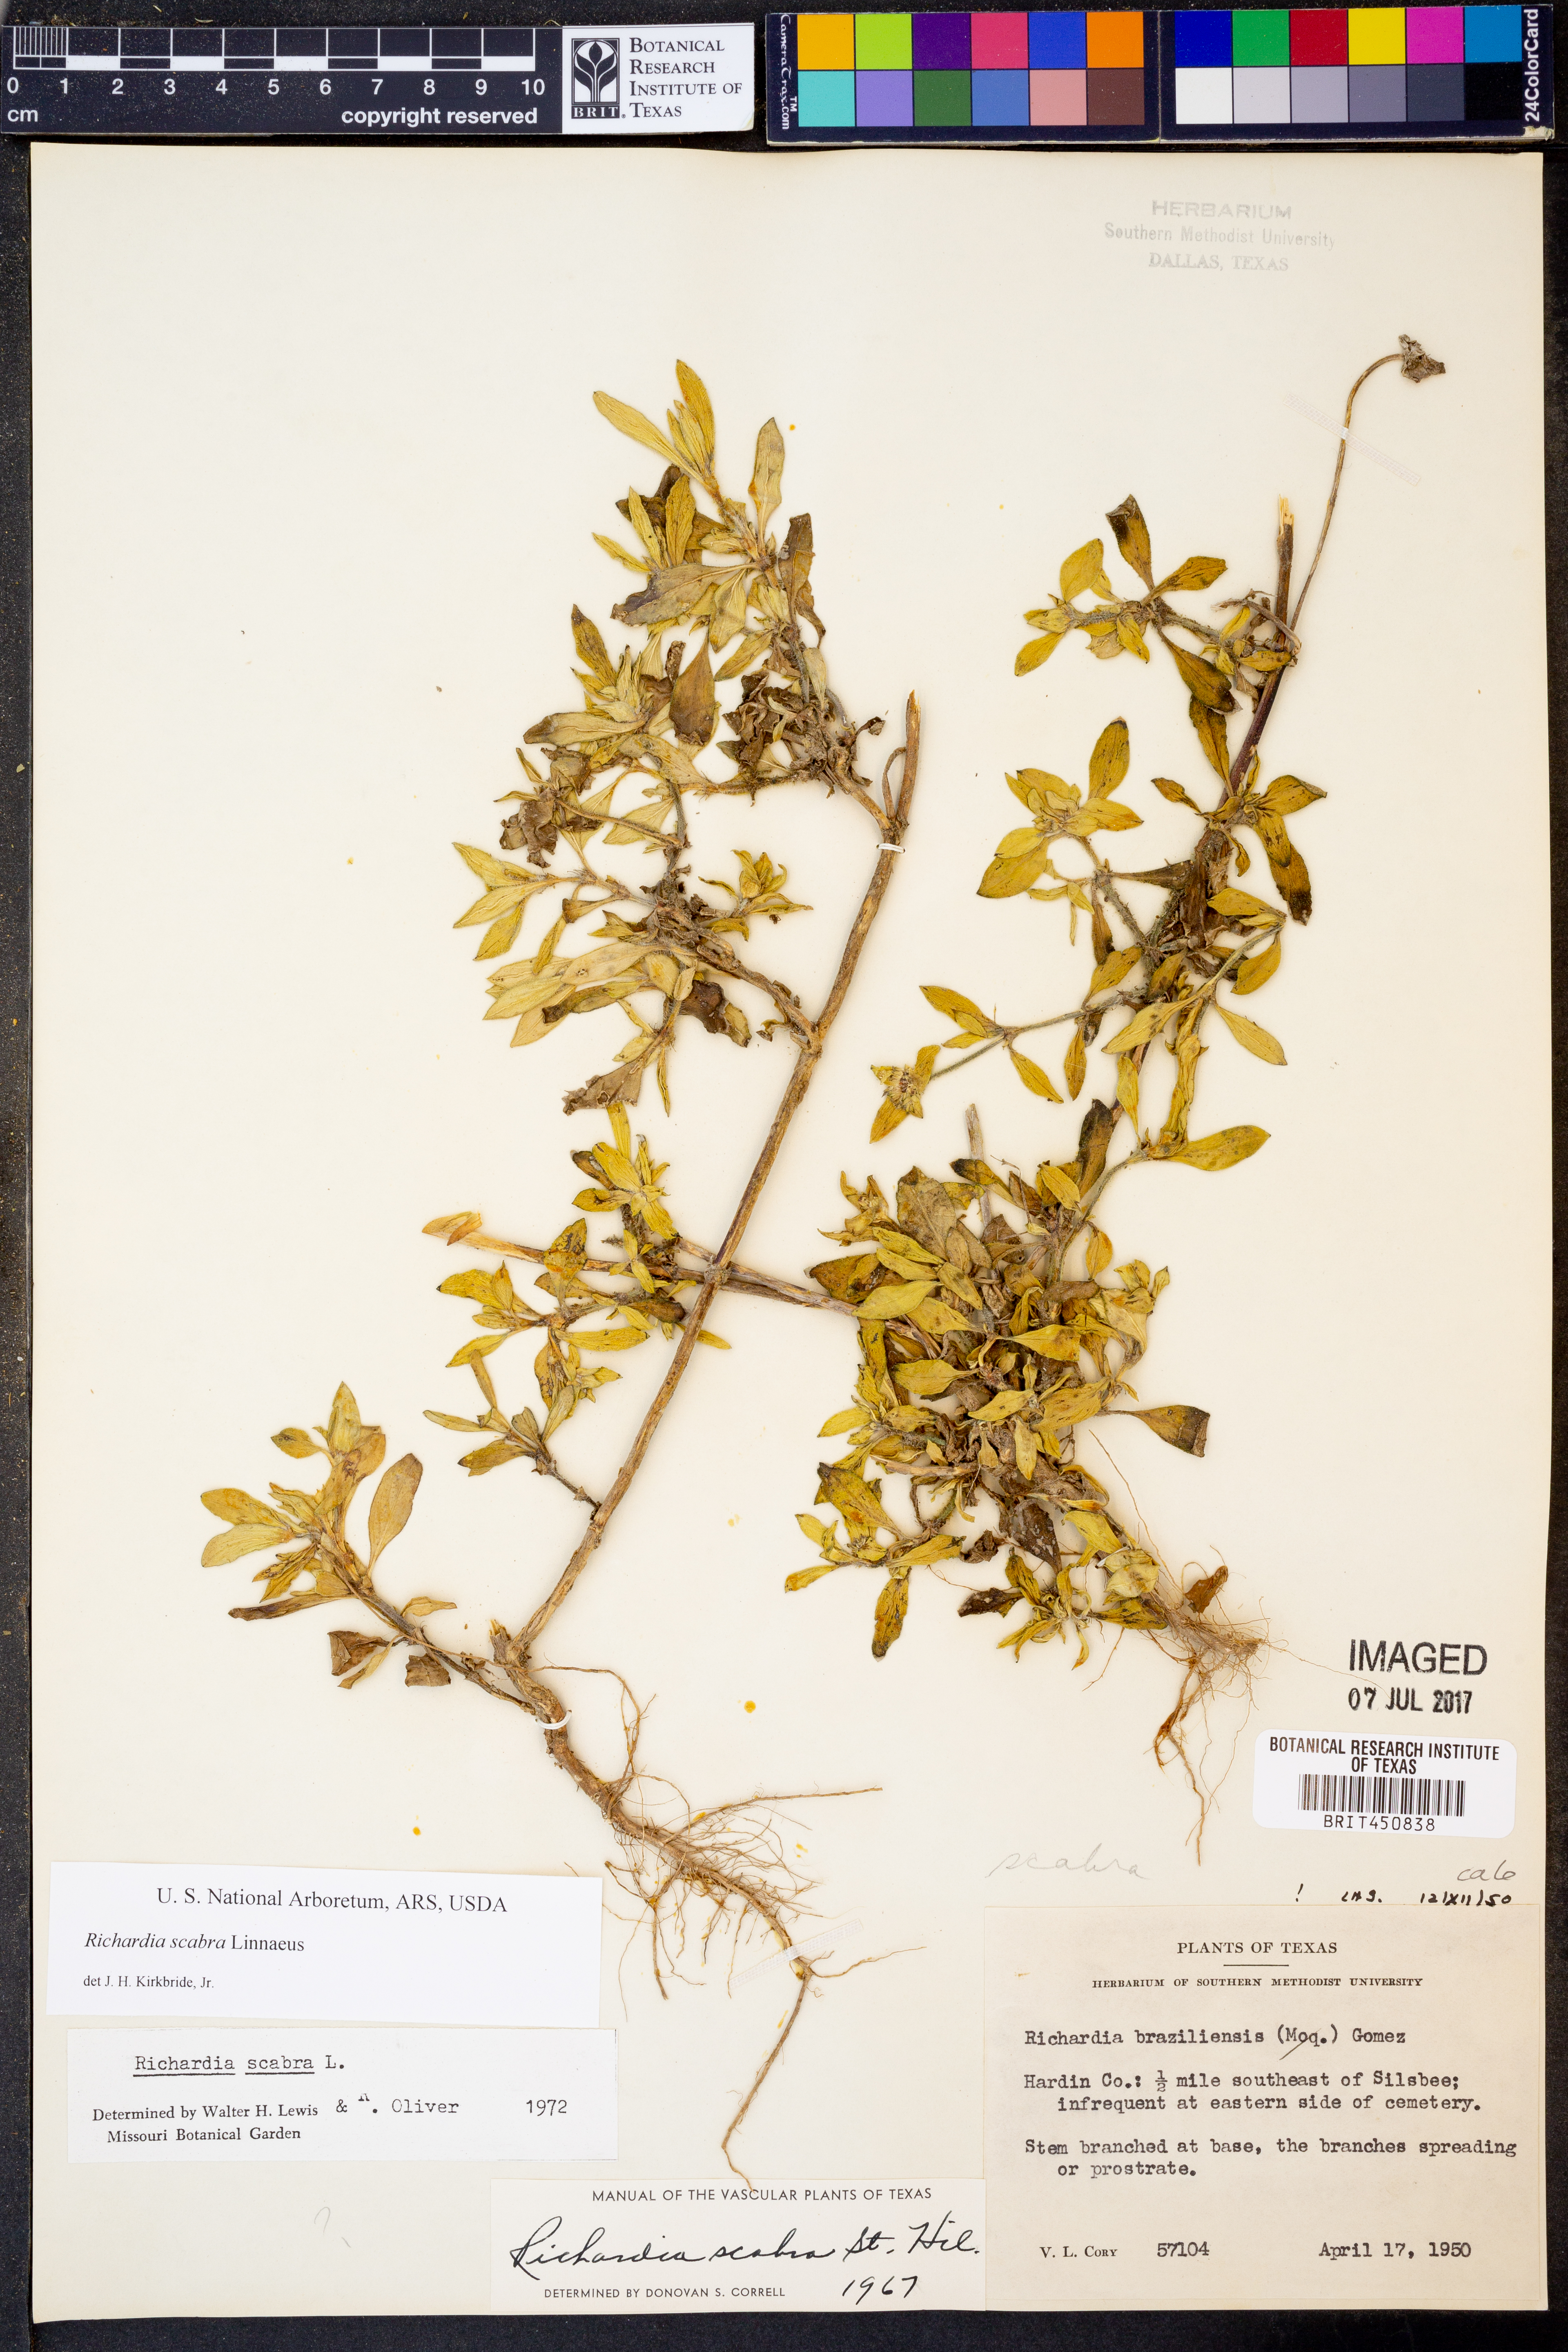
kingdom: Plantae
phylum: Tracheophyta
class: Magnoliopsida
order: Gentianales
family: Rubiaceae
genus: Richardia
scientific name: Richardia brasiliensis
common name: Tropical mexican clover
